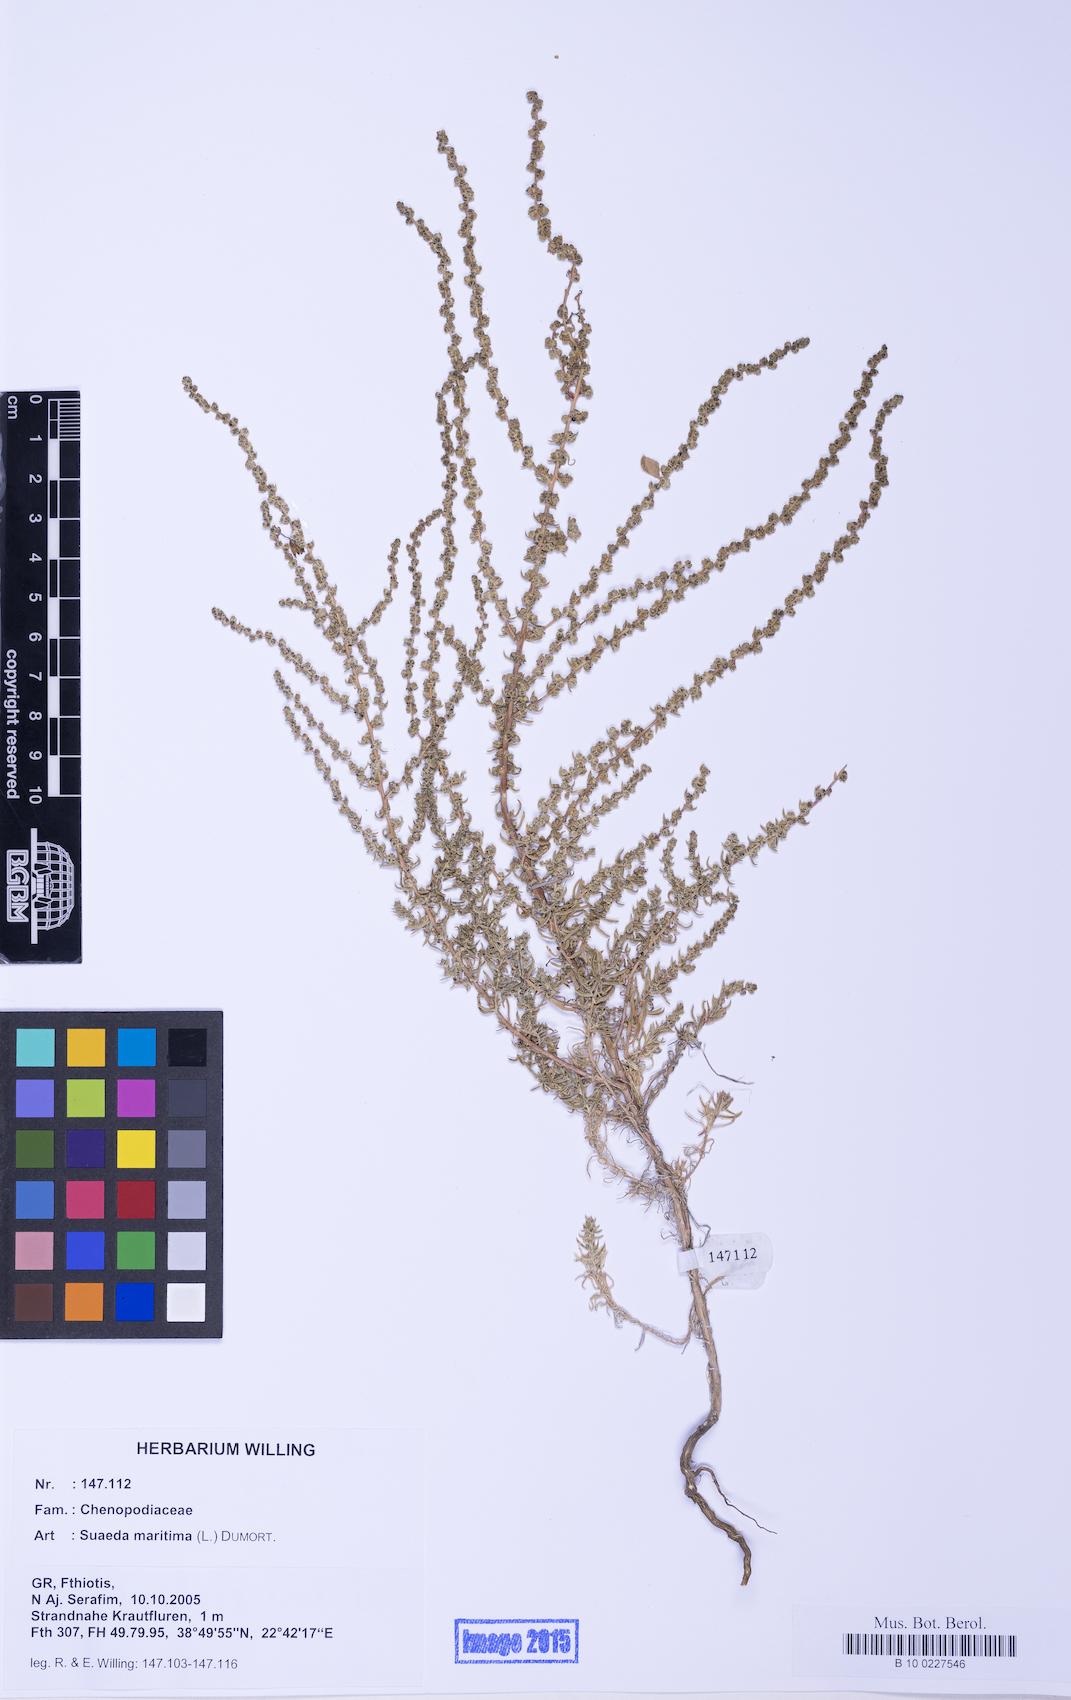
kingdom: Plantae
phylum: Tracheophyta
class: Magnoliopsida
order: Caryophyllales
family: Amaranthaceae
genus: Suaeda
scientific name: Suaeda maritima
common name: Annual sea-blite
